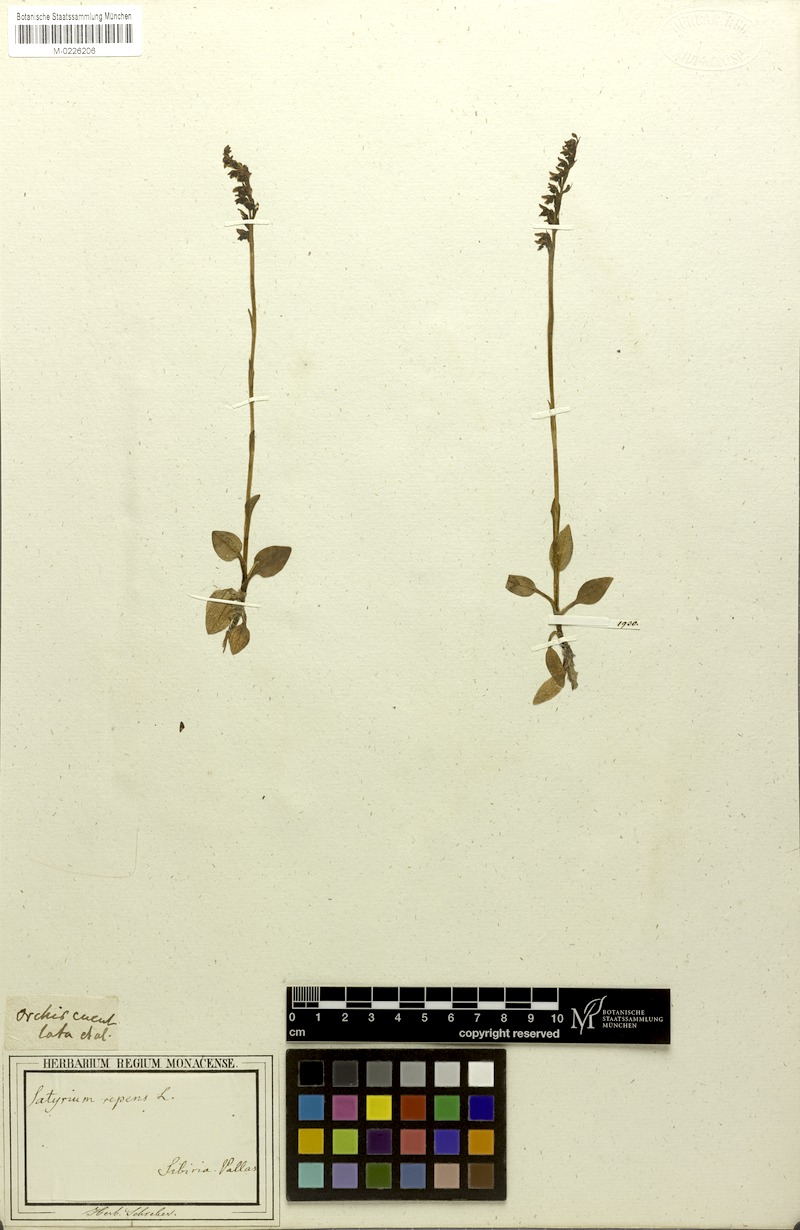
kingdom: Plantae
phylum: Tracheophyta
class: Liliopsida
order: Asparagales
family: Orchidaceae
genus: Goodyera
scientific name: Goodyera repens
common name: Creeping lady's-tresses
